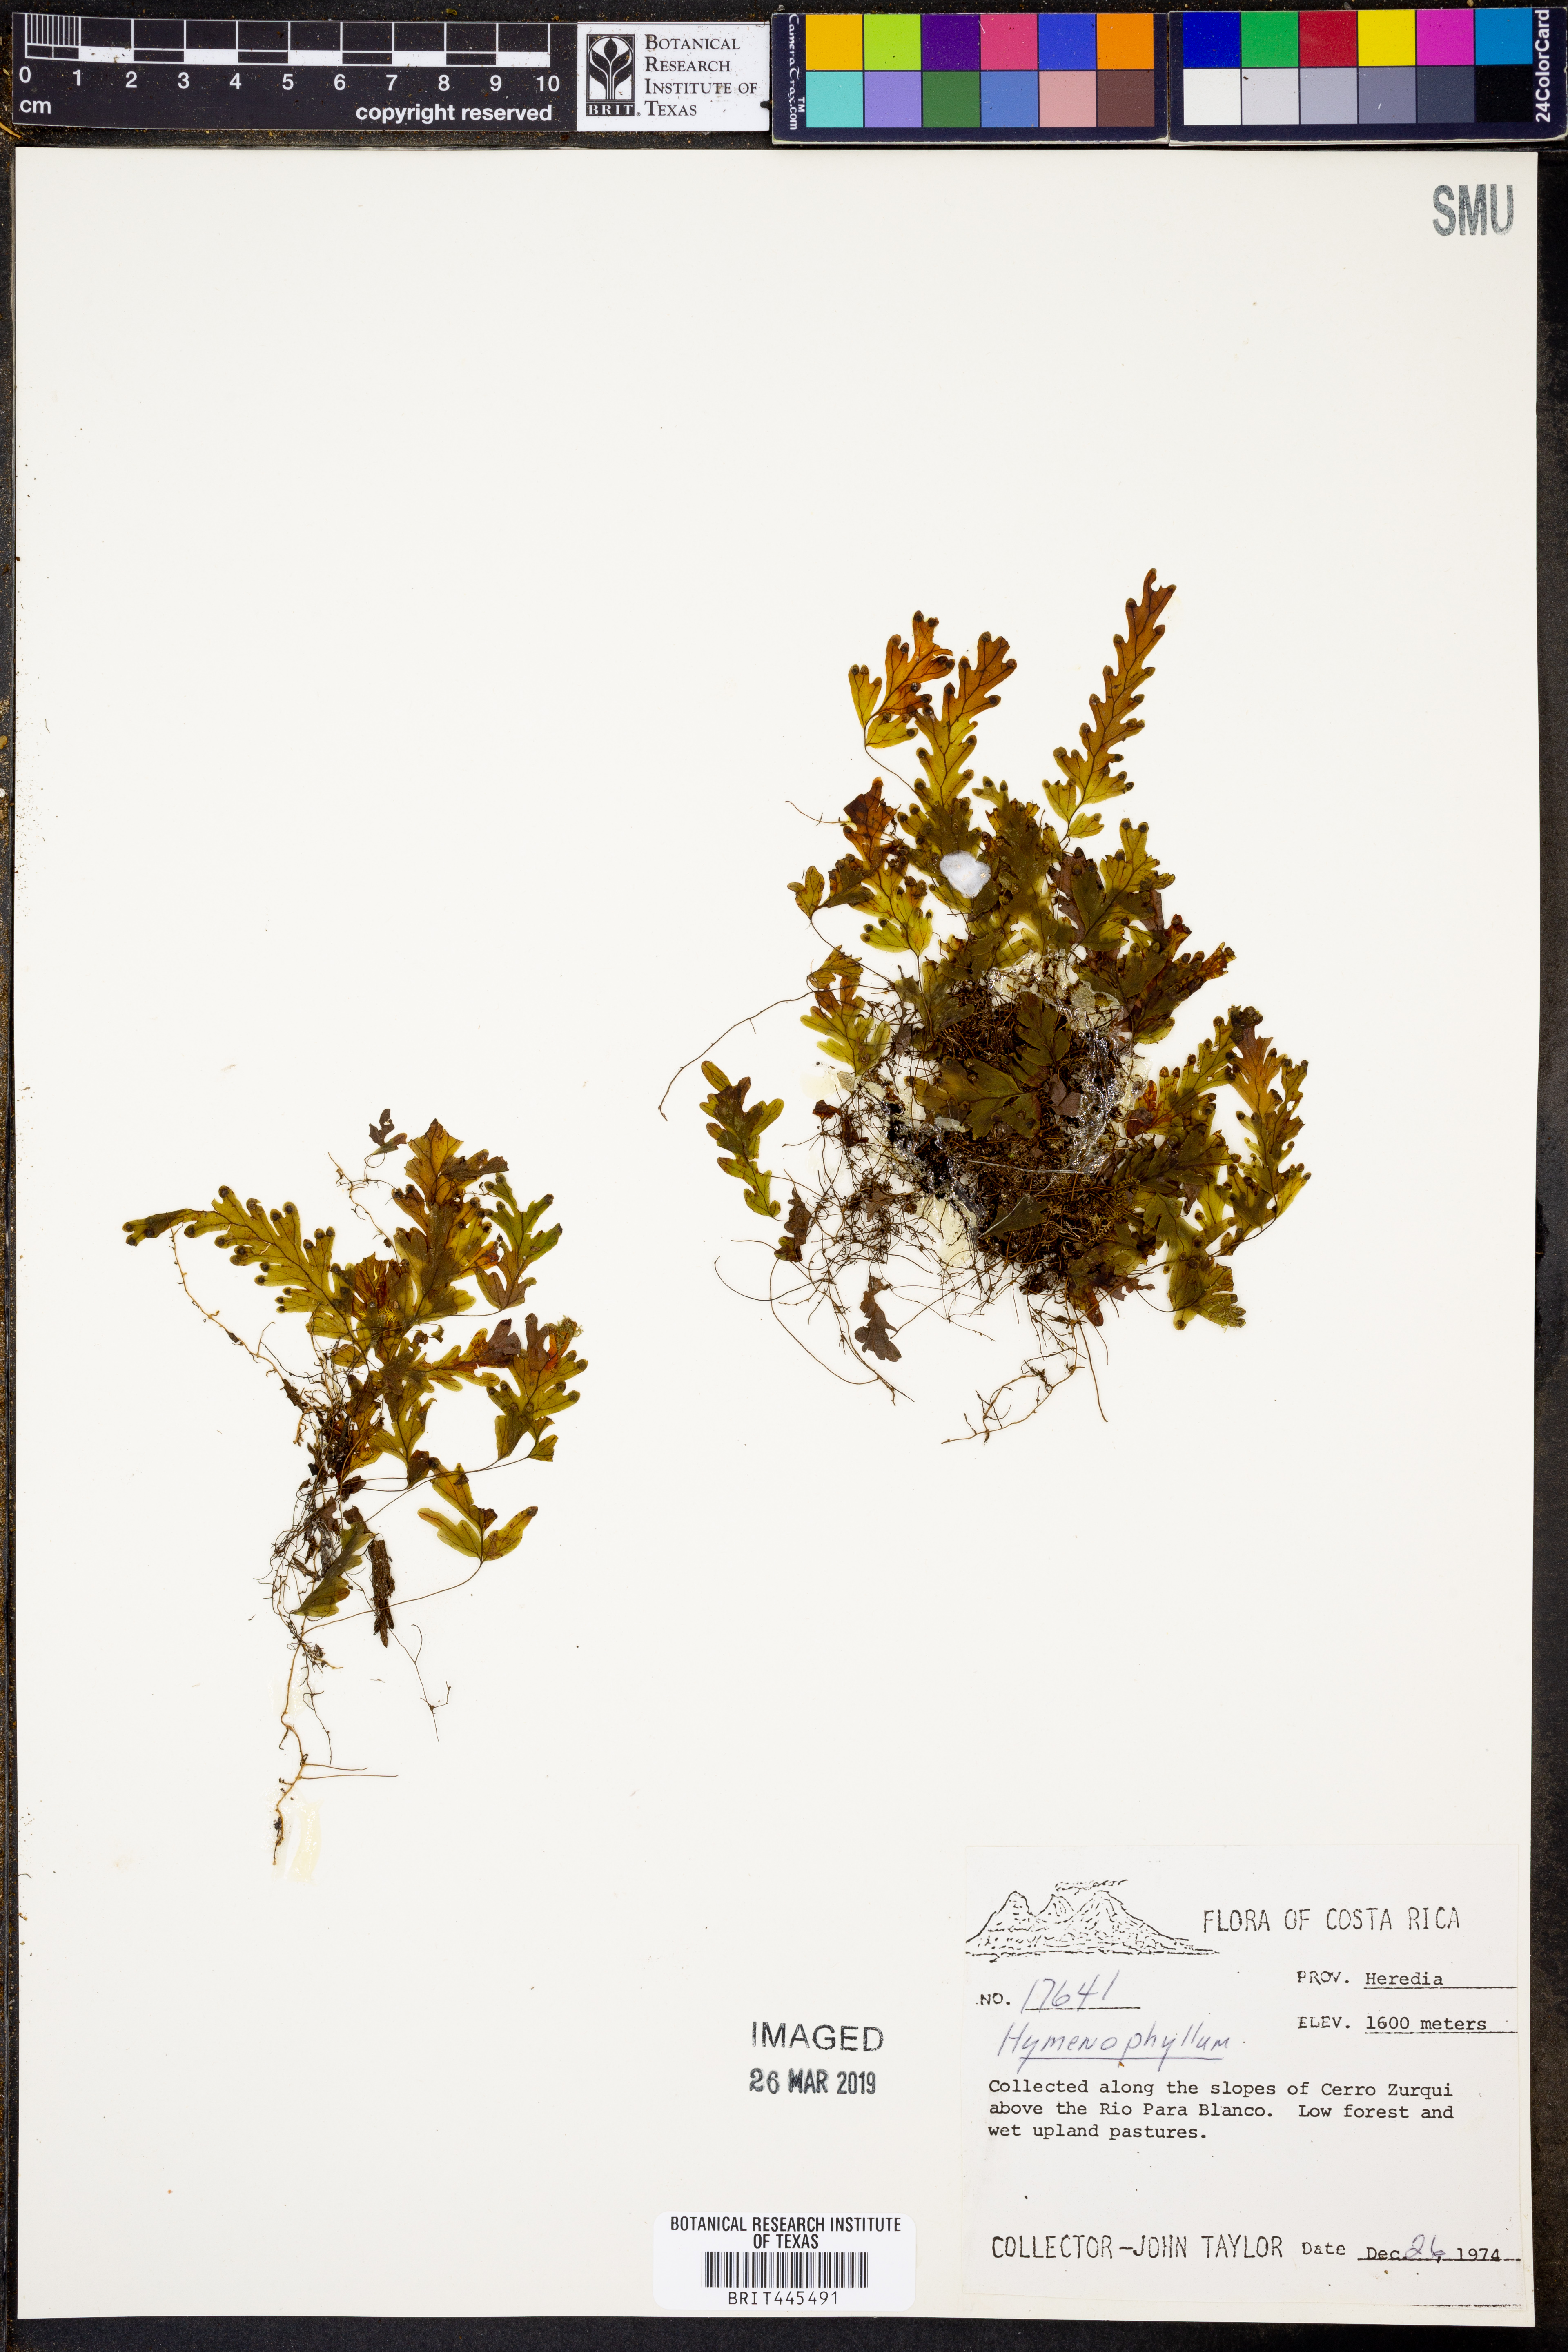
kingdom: Plantae
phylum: Tracheophyta
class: Polypodiopsida
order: Hymenophyllales
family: Hymenophyllaceae
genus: Hymenophyllum
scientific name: Hymenophyllum
